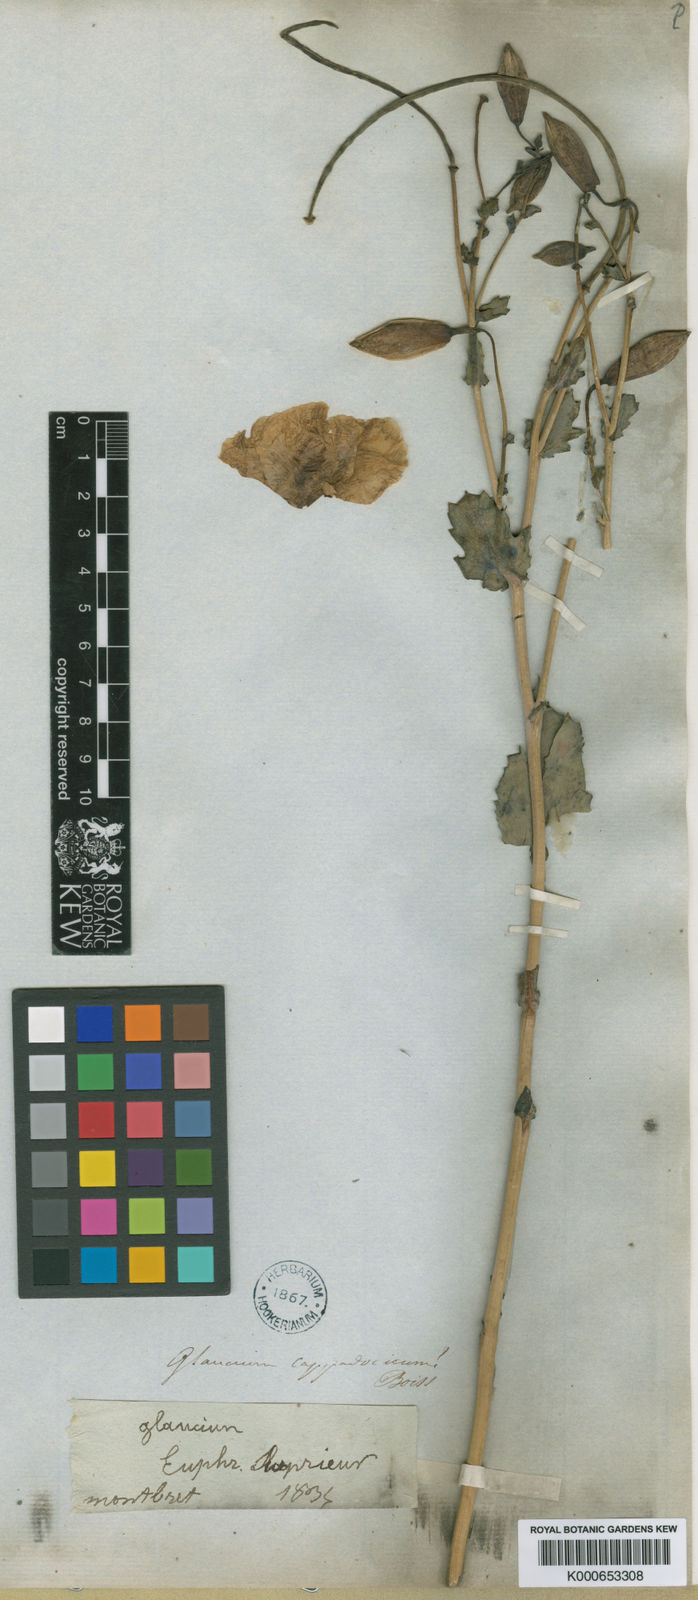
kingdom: Plantae
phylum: Tracheophyta
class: Magnoliopsida
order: Ranunculales
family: Papaveraceae
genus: Glaucium
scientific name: Glaucium cappadocicum
